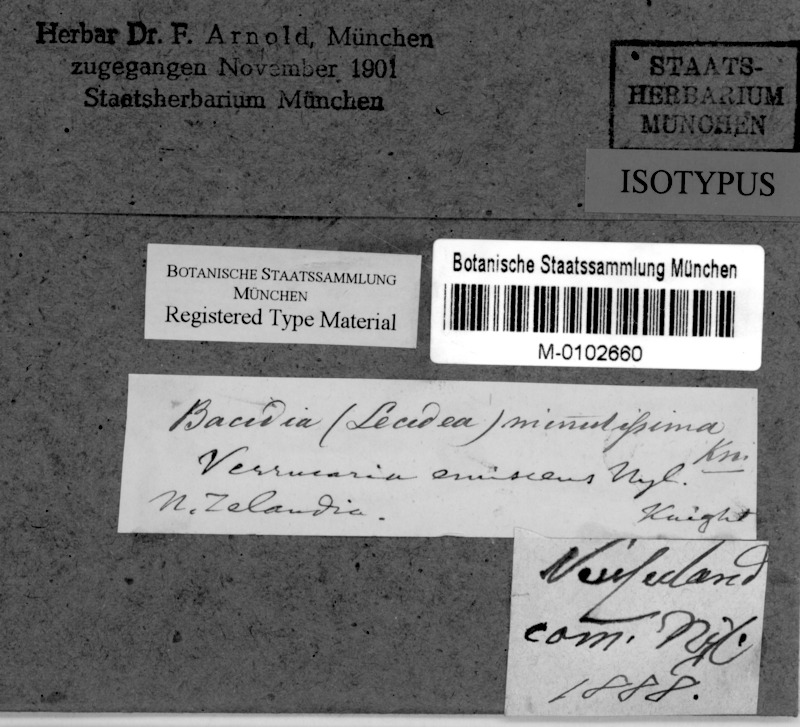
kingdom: Fungi
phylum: Ascomycota
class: Lecanoromycetes
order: Lecanorales
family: Ramalinaceae
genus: Bacidia
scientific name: Bacidia
